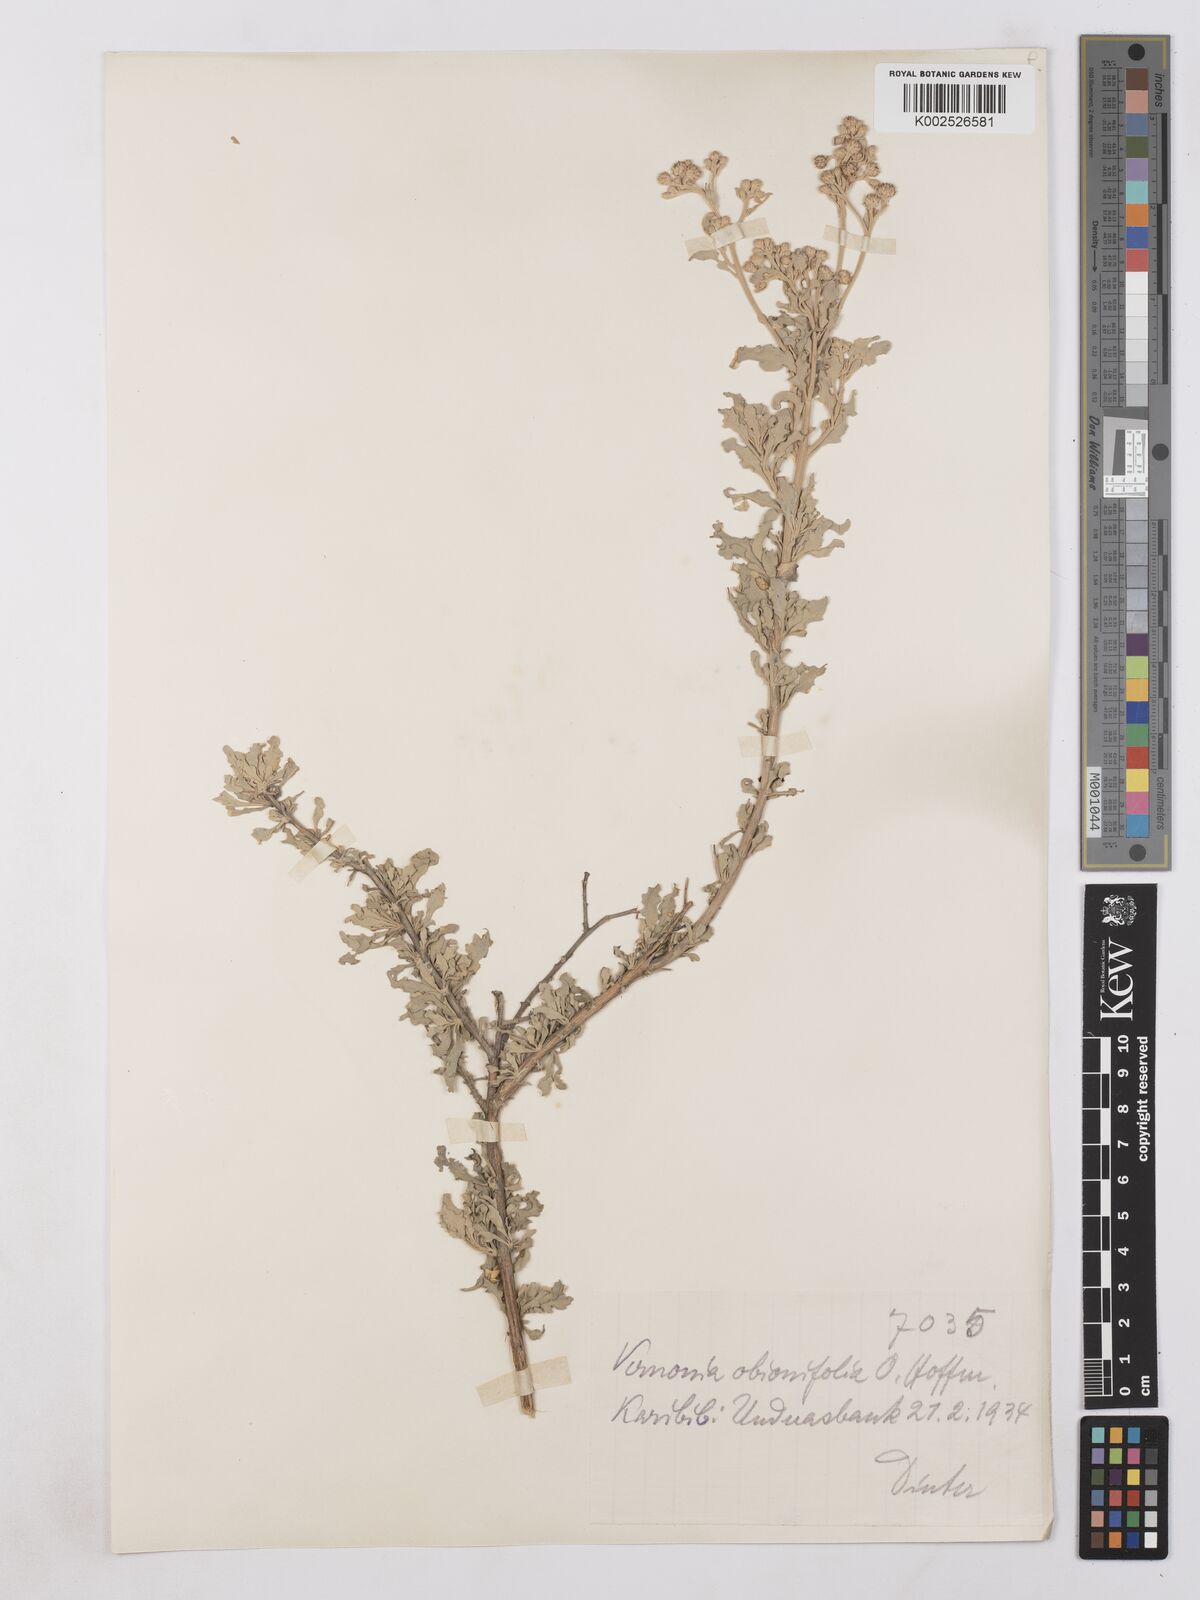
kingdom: Plantae
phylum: Tracheophyta
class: Magnoliopsida
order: Asterales
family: Asteraceae
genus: Namibithamnus
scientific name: Namibithamnus obionifolius
